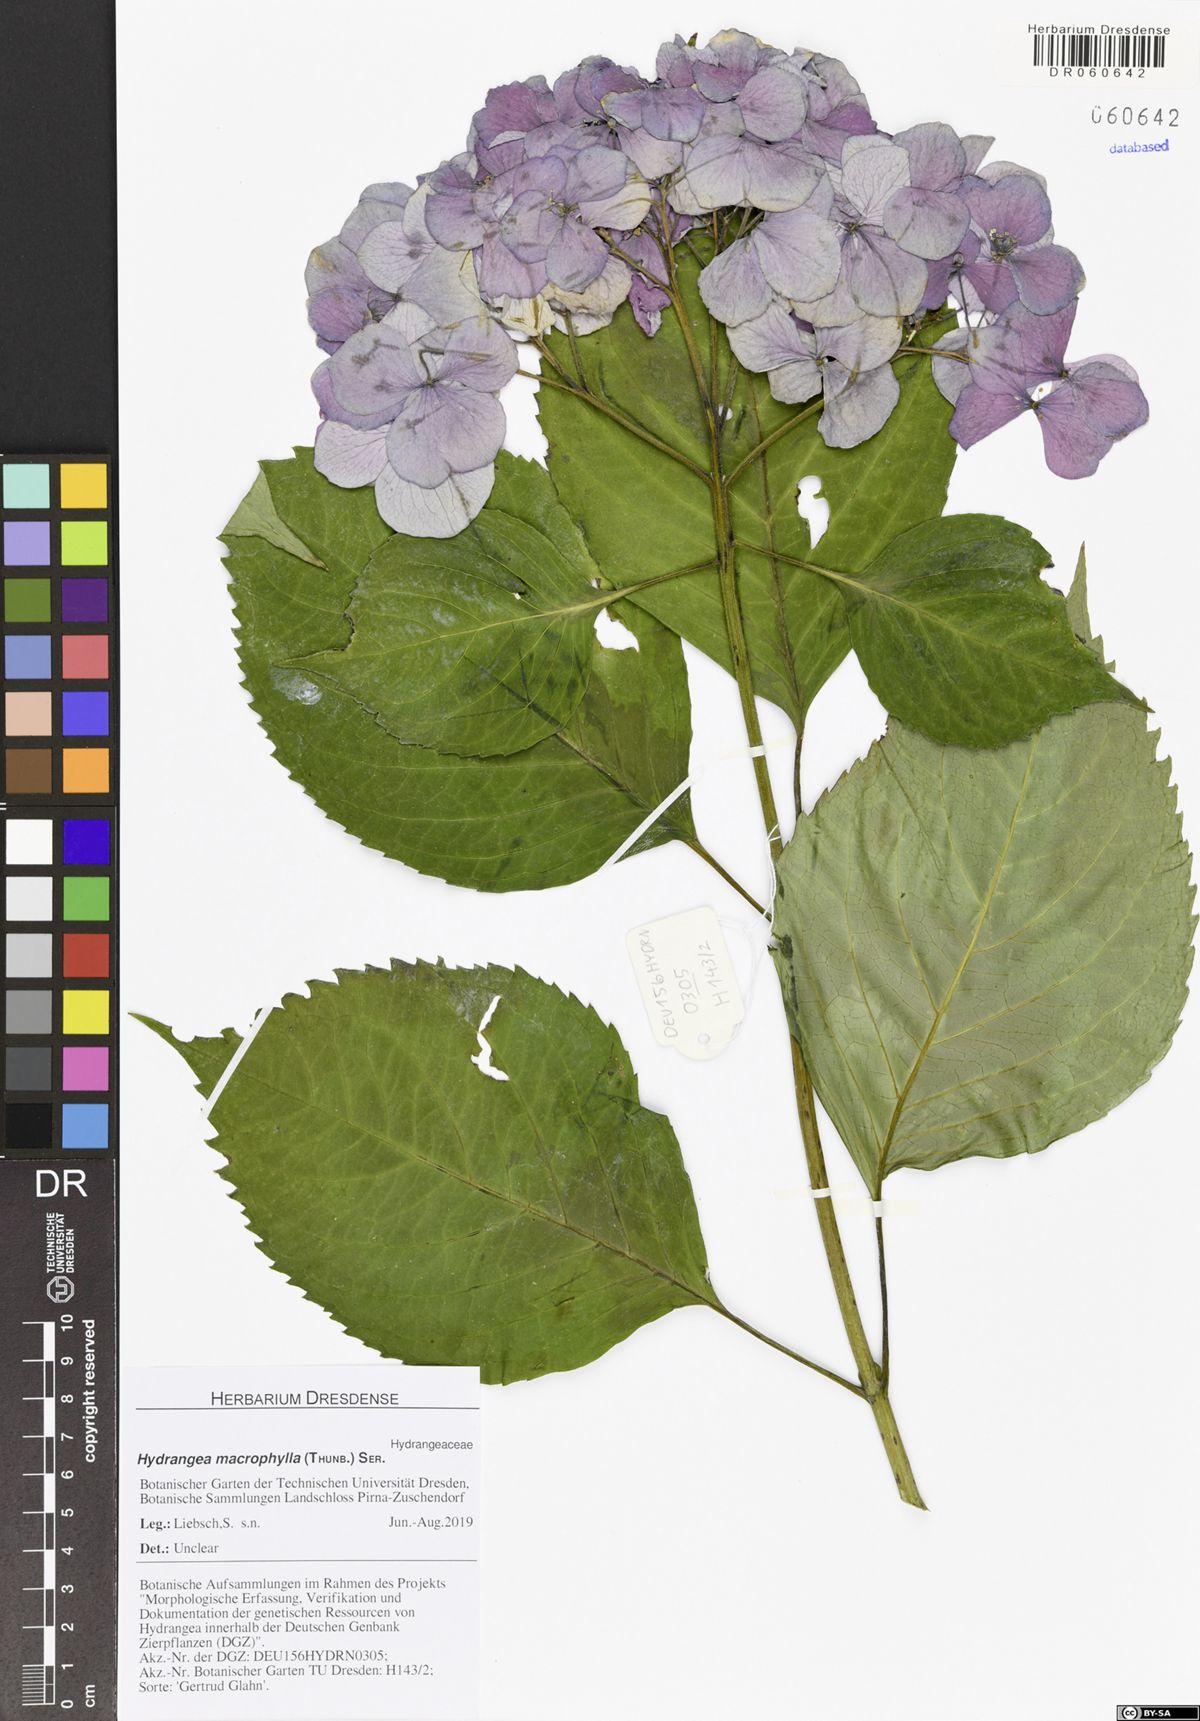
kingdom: Plantae
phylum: Tracheophyta
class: Magnoliopsida
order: Cornales
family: Hydrangeaceae
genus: Hydrangea
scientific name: Hydrangea macrophylla
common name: Hydrangea
